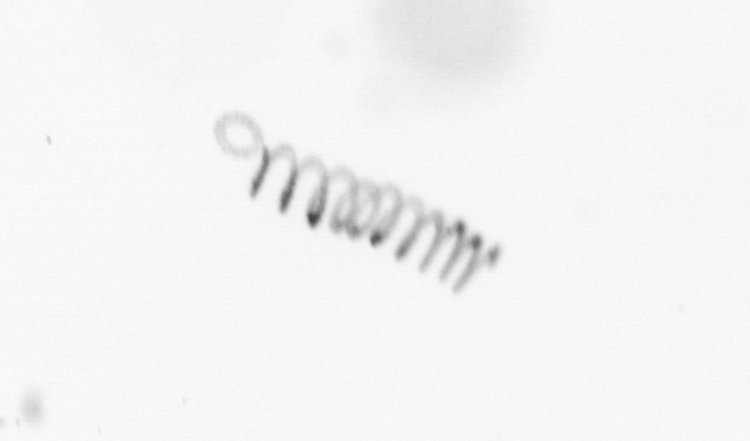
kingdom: Chromista
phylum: Ochrophyta
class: Bacillariophyceae
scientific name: Bacillariophyceae
